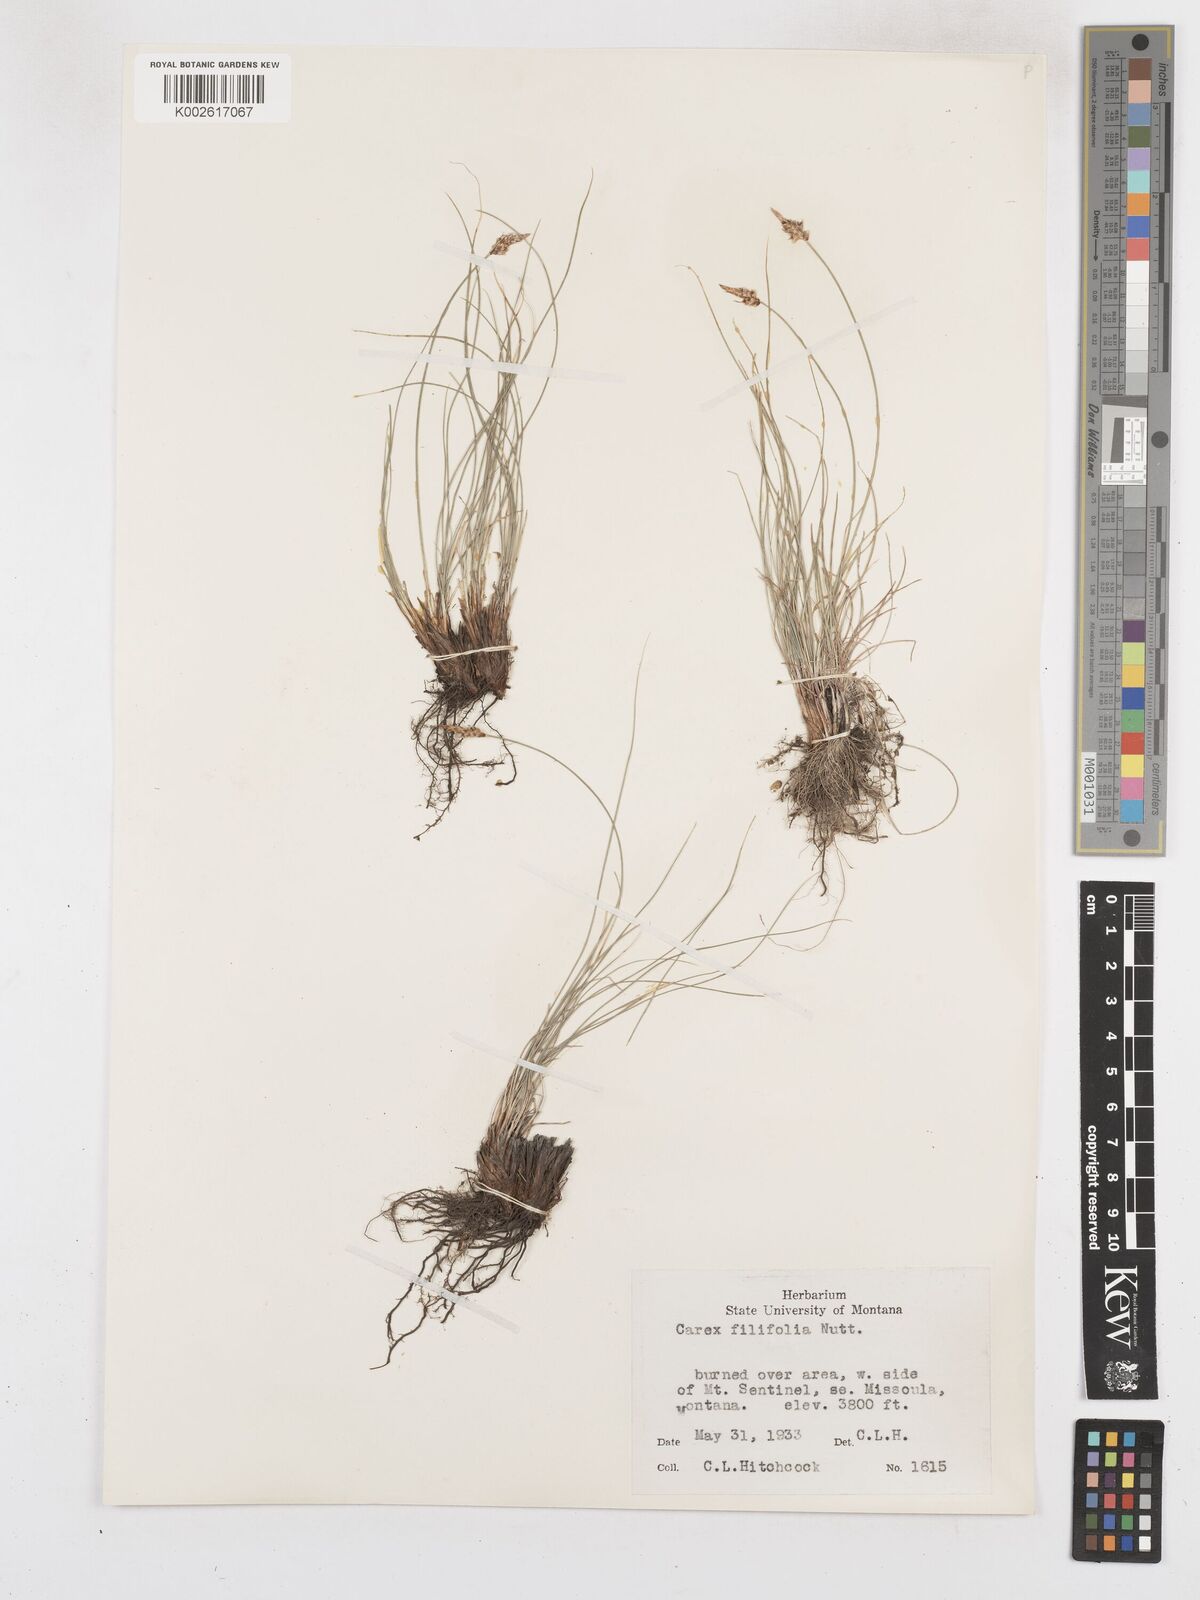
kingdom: Plantae
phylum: Tracheophyta
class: Liliopsida
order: Poales
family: Cyperaceae
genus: Carex
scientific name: Carex filifolia
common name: Threadleaf sedge
